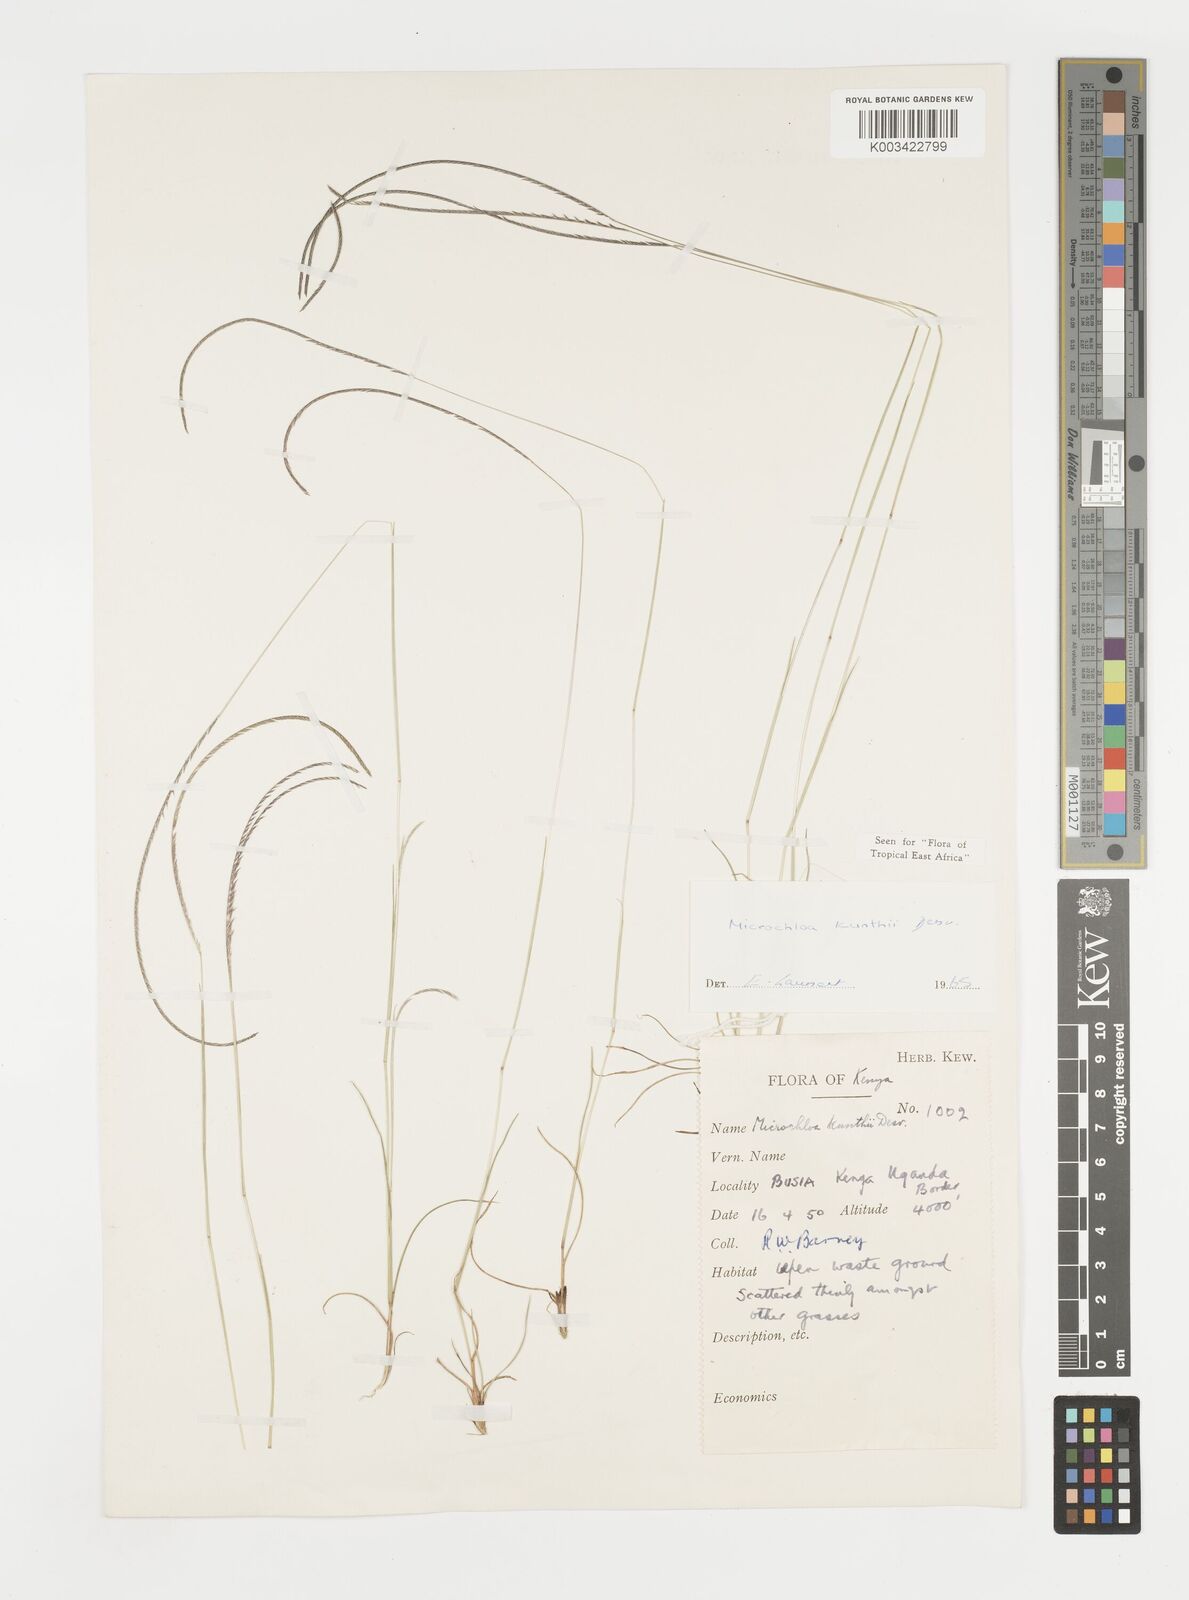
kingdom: Plantae
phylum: Tracheophyta
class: Liliopsida
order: Poales
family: Poaceae
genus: Microchloa
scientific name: Microchloa kunthii
